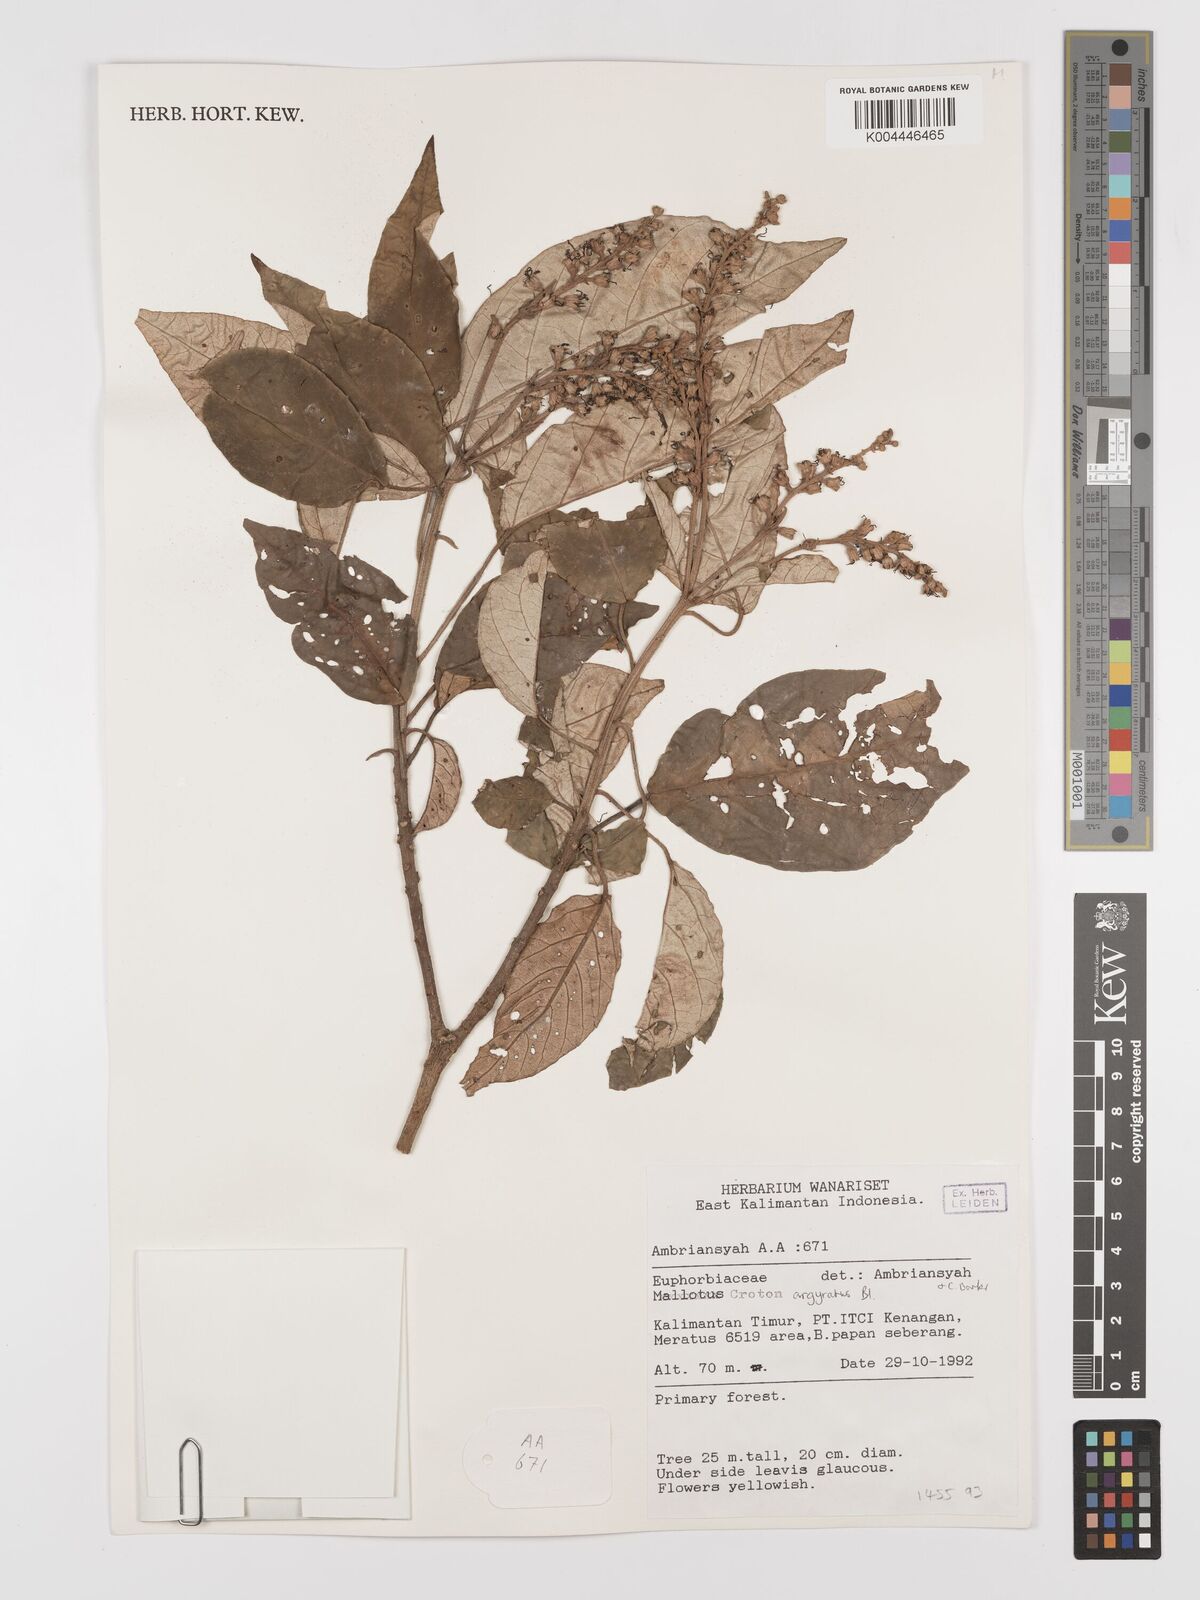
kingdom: Plantae
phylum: Tracheophyta
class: Magnoliopsida
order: Malpighiales
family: Euphorbiaceae
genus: Croton
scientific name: Croton argyratus
